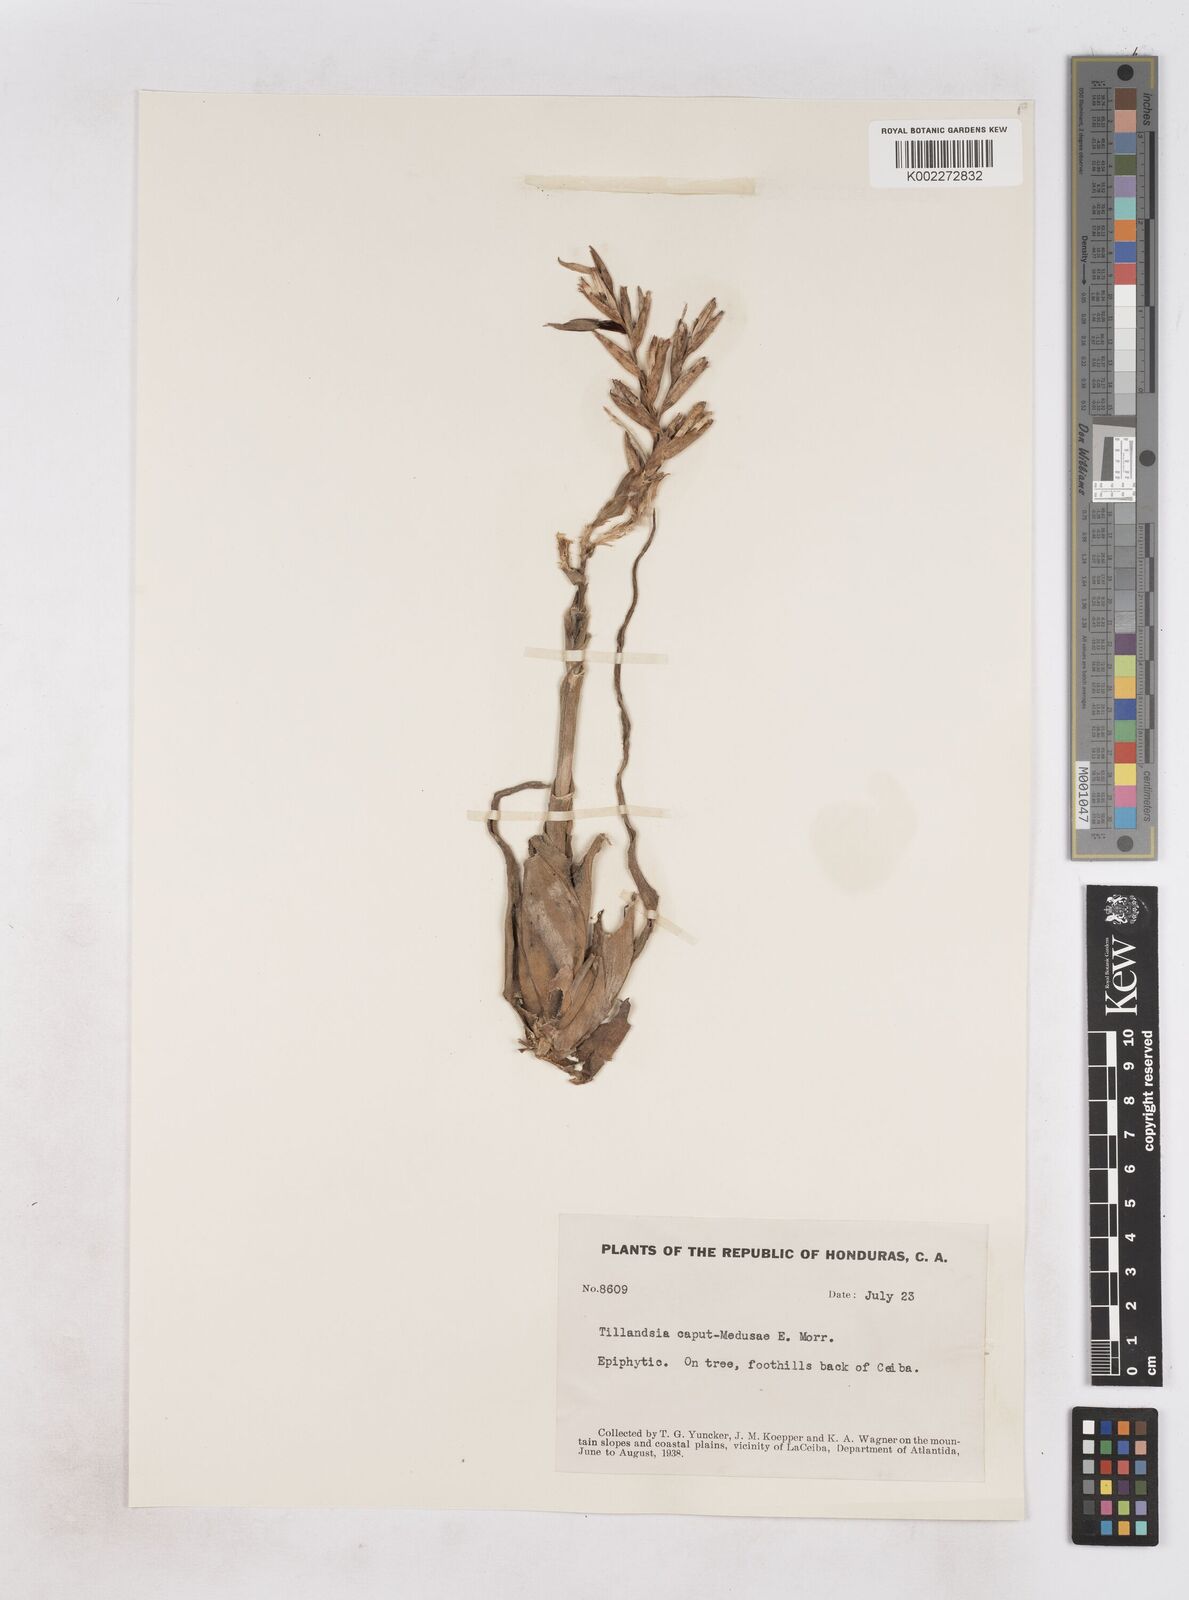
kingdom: Plantae
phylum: Tracheophyta
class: Liliopsida
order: Poales
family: Bromeliaceae
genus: Tillandsia
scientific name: Tillandsia caput-medusae
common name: Octopus plant
